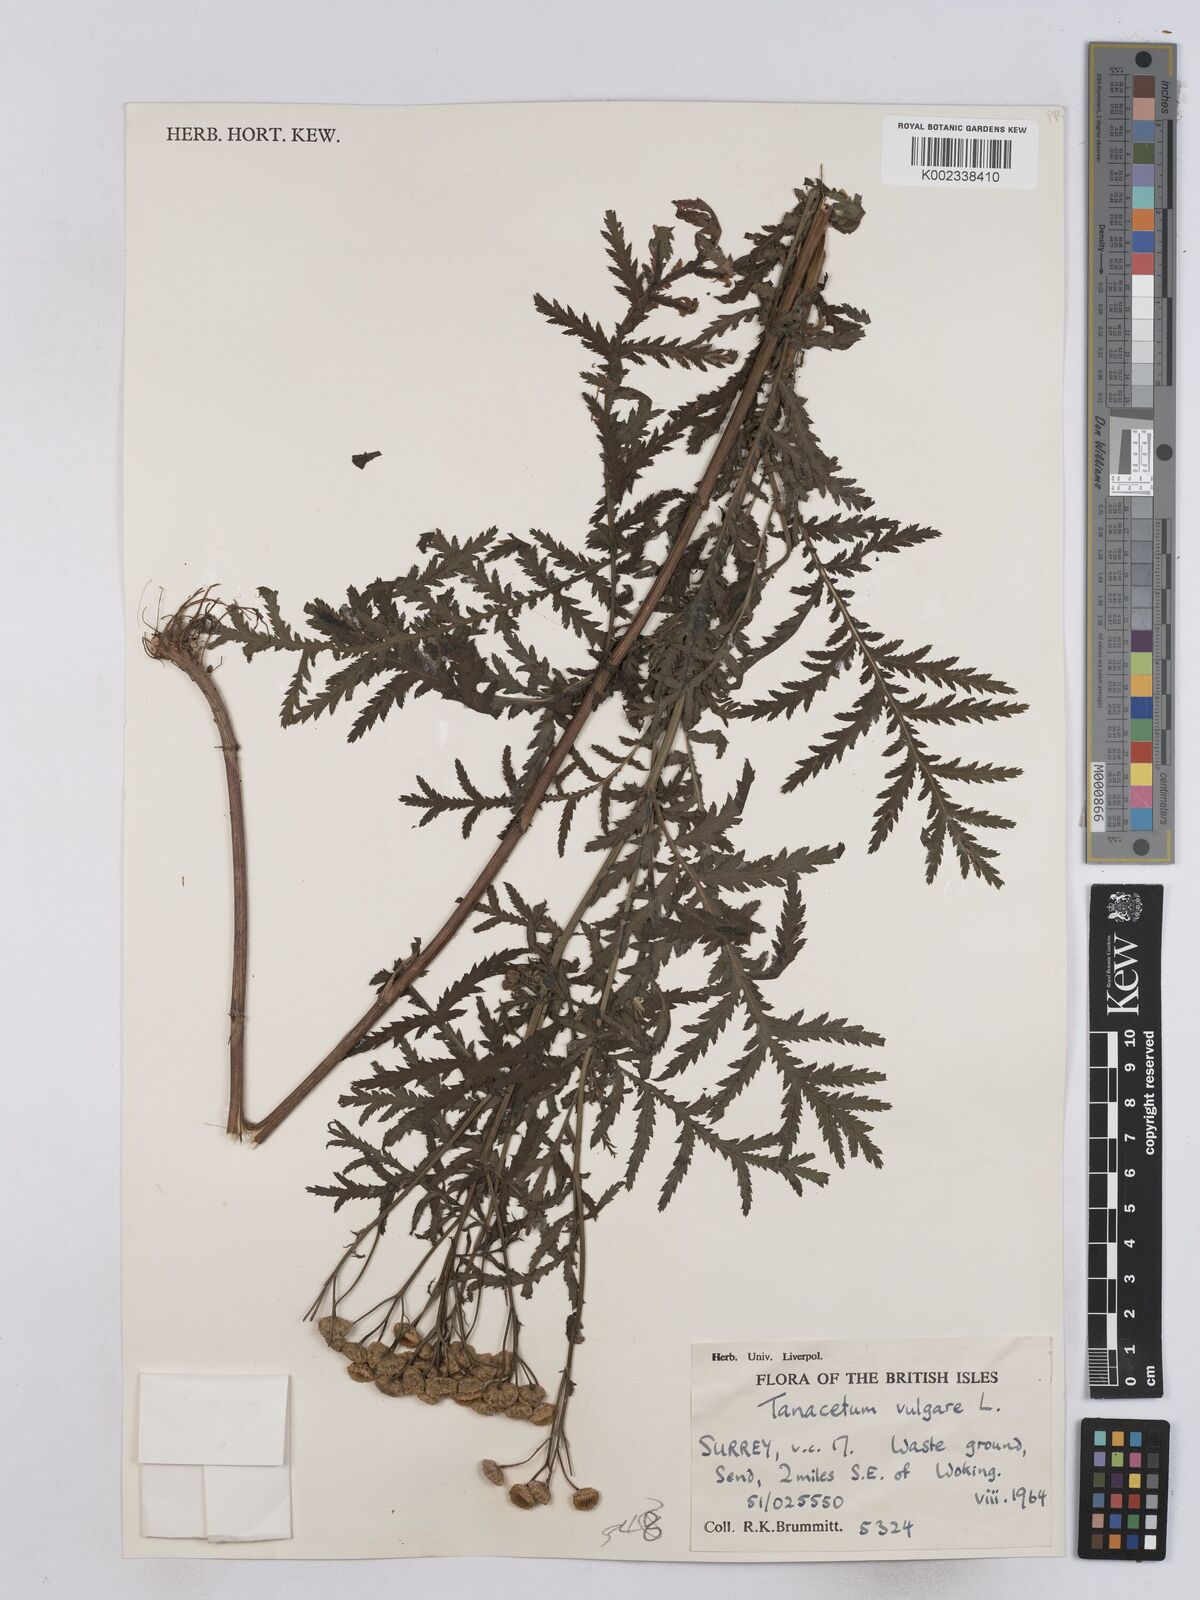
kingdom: Plantae
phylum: Tracheophyta
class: Magnoliopsida
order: Asterales
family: Asteraceae
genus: Tanacetum
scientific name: Tanacetum vulgare
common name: Common tansy
